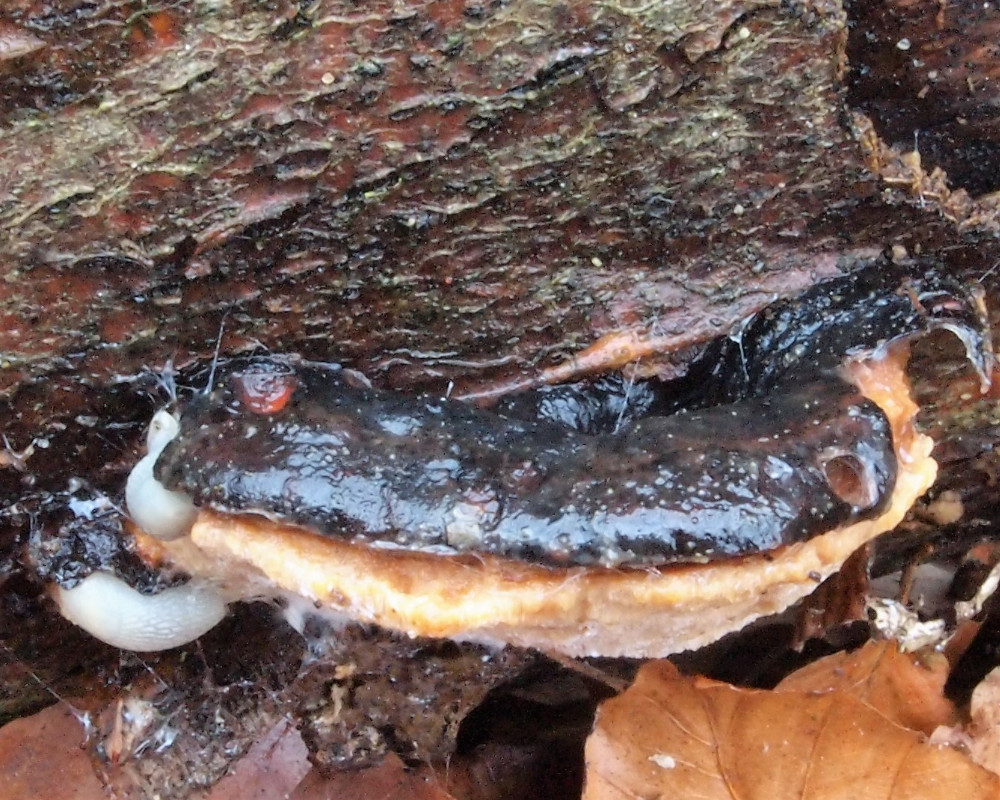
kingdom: Fungi
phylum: Basidiomycota
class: Agaricomycetes
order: Polyporales
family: Ischnodermataceae
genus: Ischnoderma
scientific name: Ischnoderma resinosum
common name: løv-tjæreporesvamp
